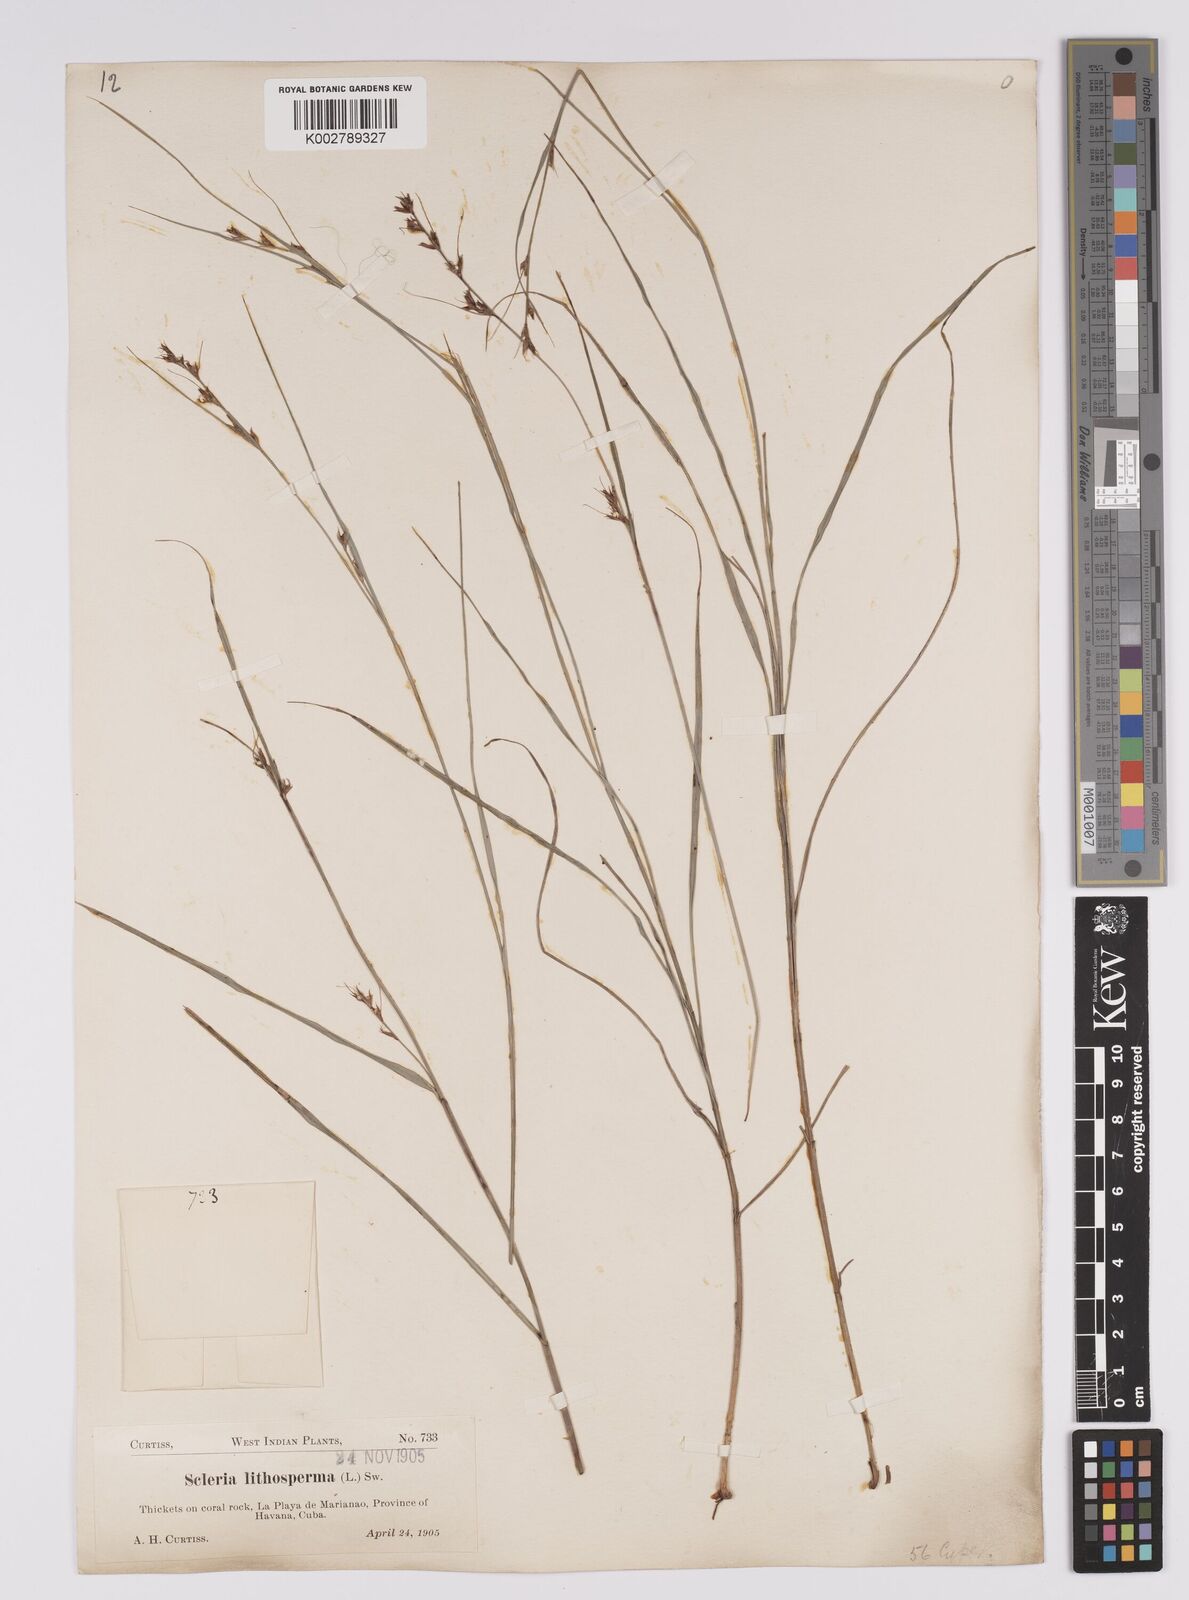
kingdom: Plantae
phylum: Tracheophyta
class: Liliopsida
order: Poales
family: Cyperaceae
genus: Scleria
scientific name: Scleria lithosperma
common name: Florida keys nut-rush
